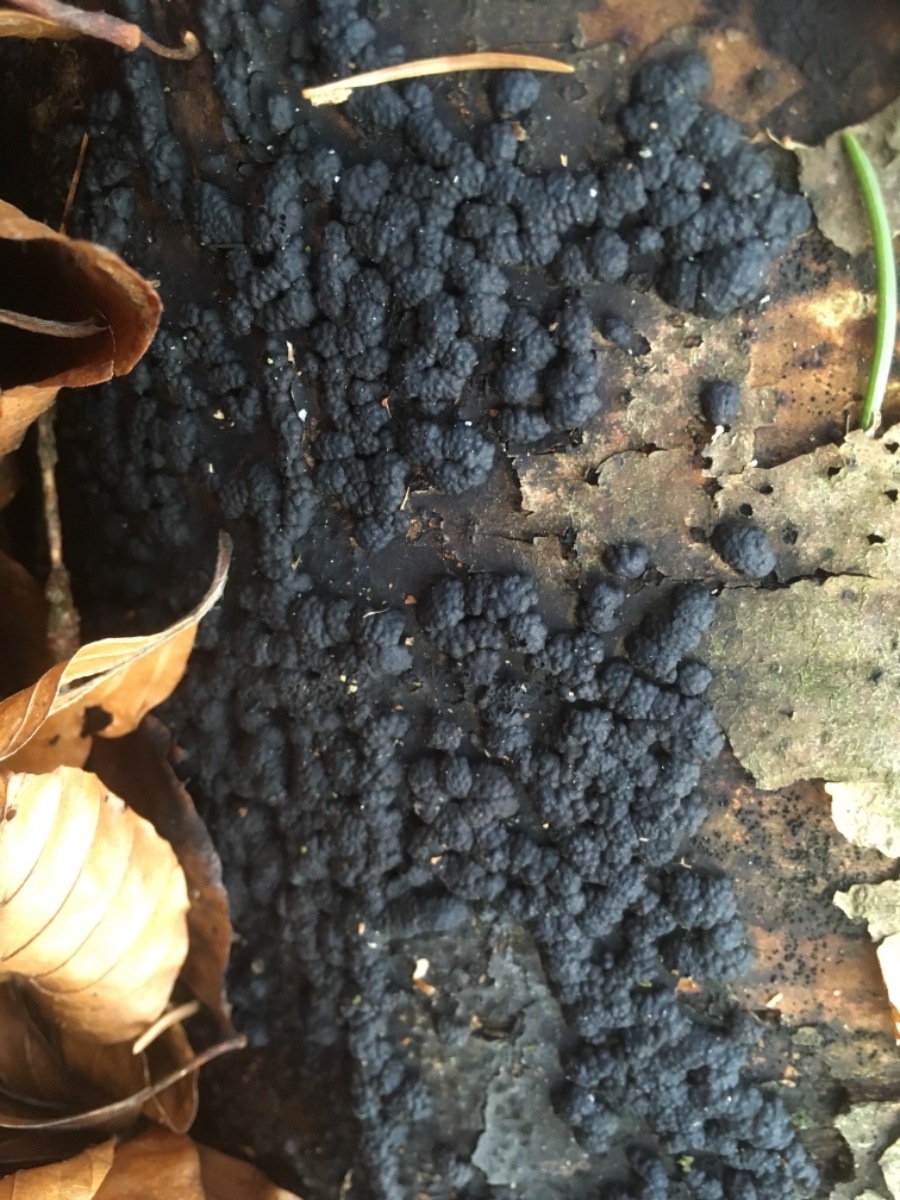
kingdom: Fungi
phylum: Ascomycota
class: Sordariomycetes
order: Xylariales
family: Hypoxylaceae
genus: Jackrogersella
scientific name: Jackrogersella cohaerens
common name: sammenflydende kulbær
